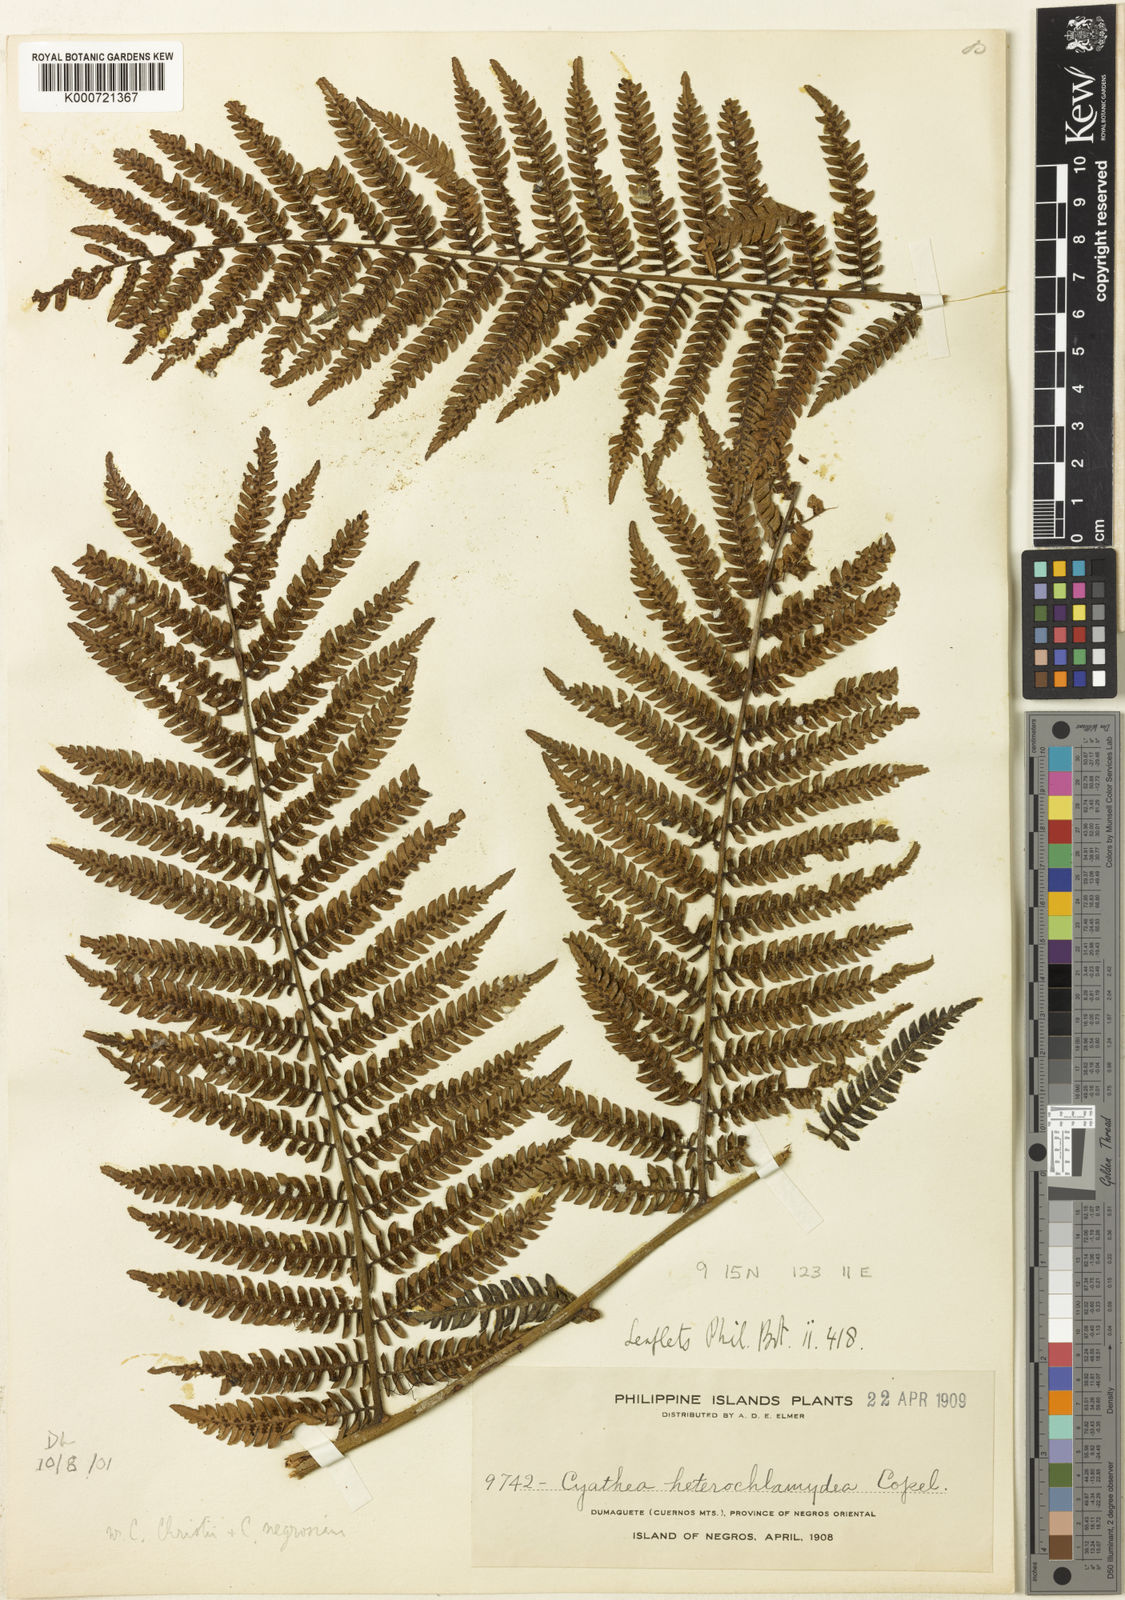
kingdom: Plantae
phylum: Tracheophyta
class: Polypodiopsida
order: Cyatheales
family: Cyatheaceae
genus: Alsophila
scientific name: Alsophila heterochlamydea
